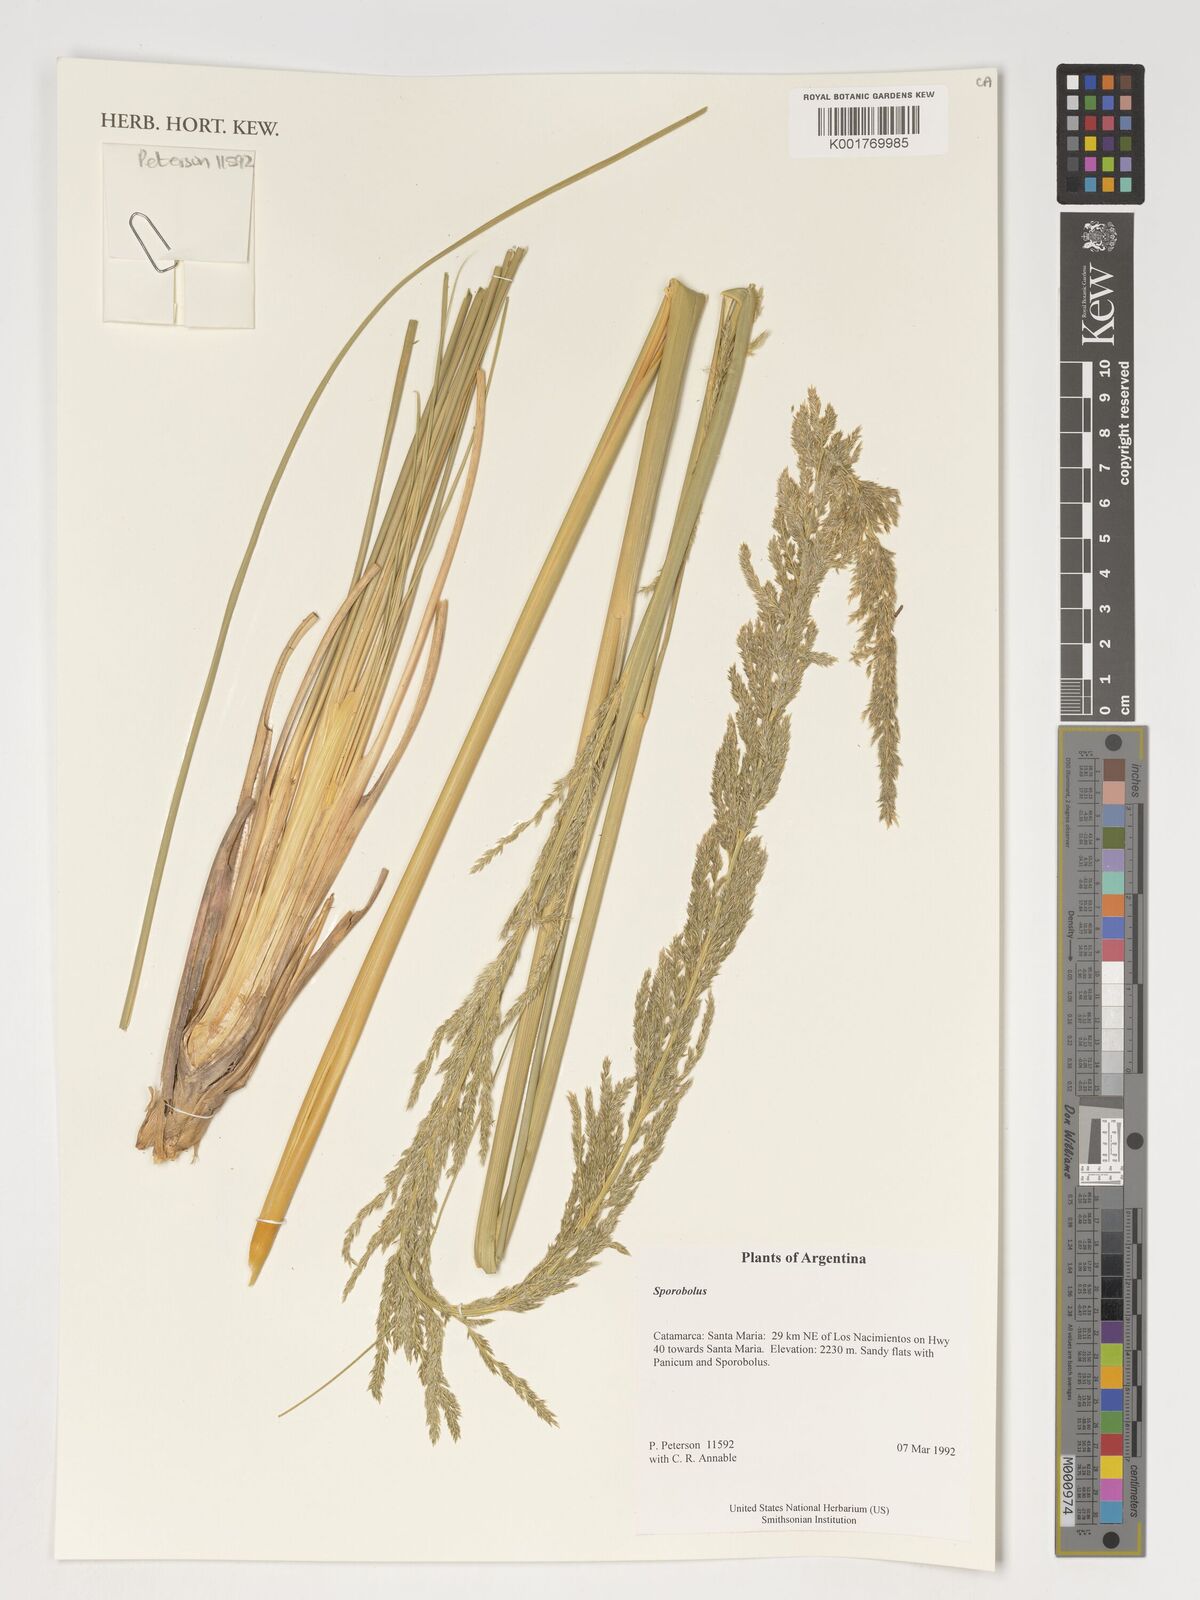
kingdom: Plantae
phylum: Tracheophyta
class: Liliopsida
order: Poales
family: Poaceae
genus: Sporobolus
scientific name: Sporobolus
